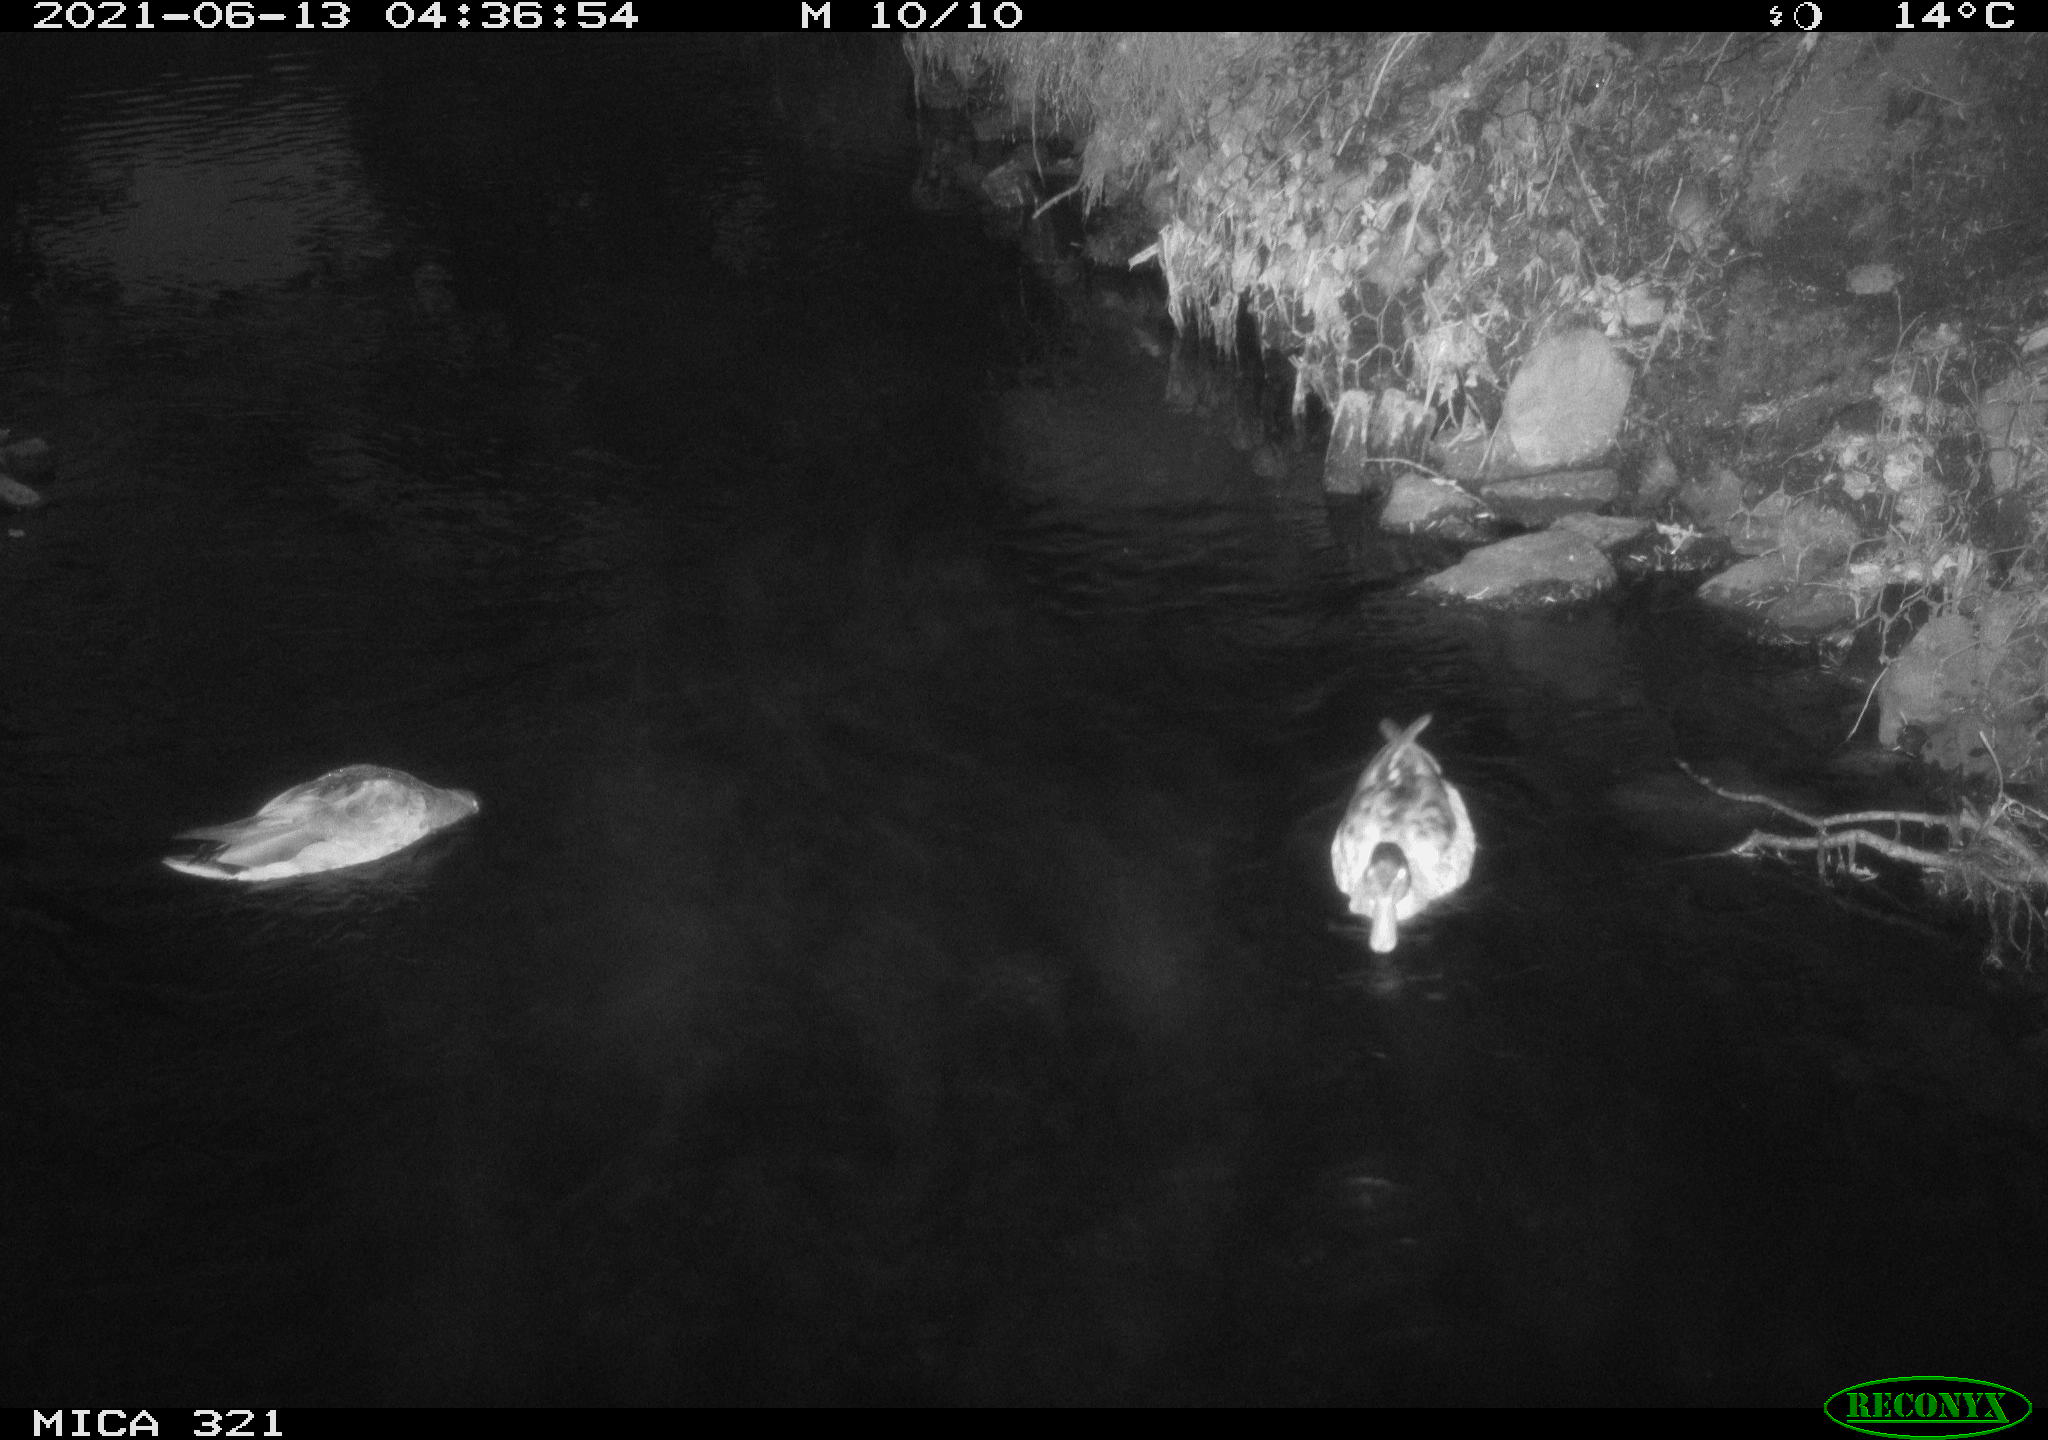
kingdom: Animalia
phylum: Chordata
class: Aves
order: Anseriformes
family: Anatidae
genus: Anas
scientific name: Anas platyrhynchos
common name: Mallard
